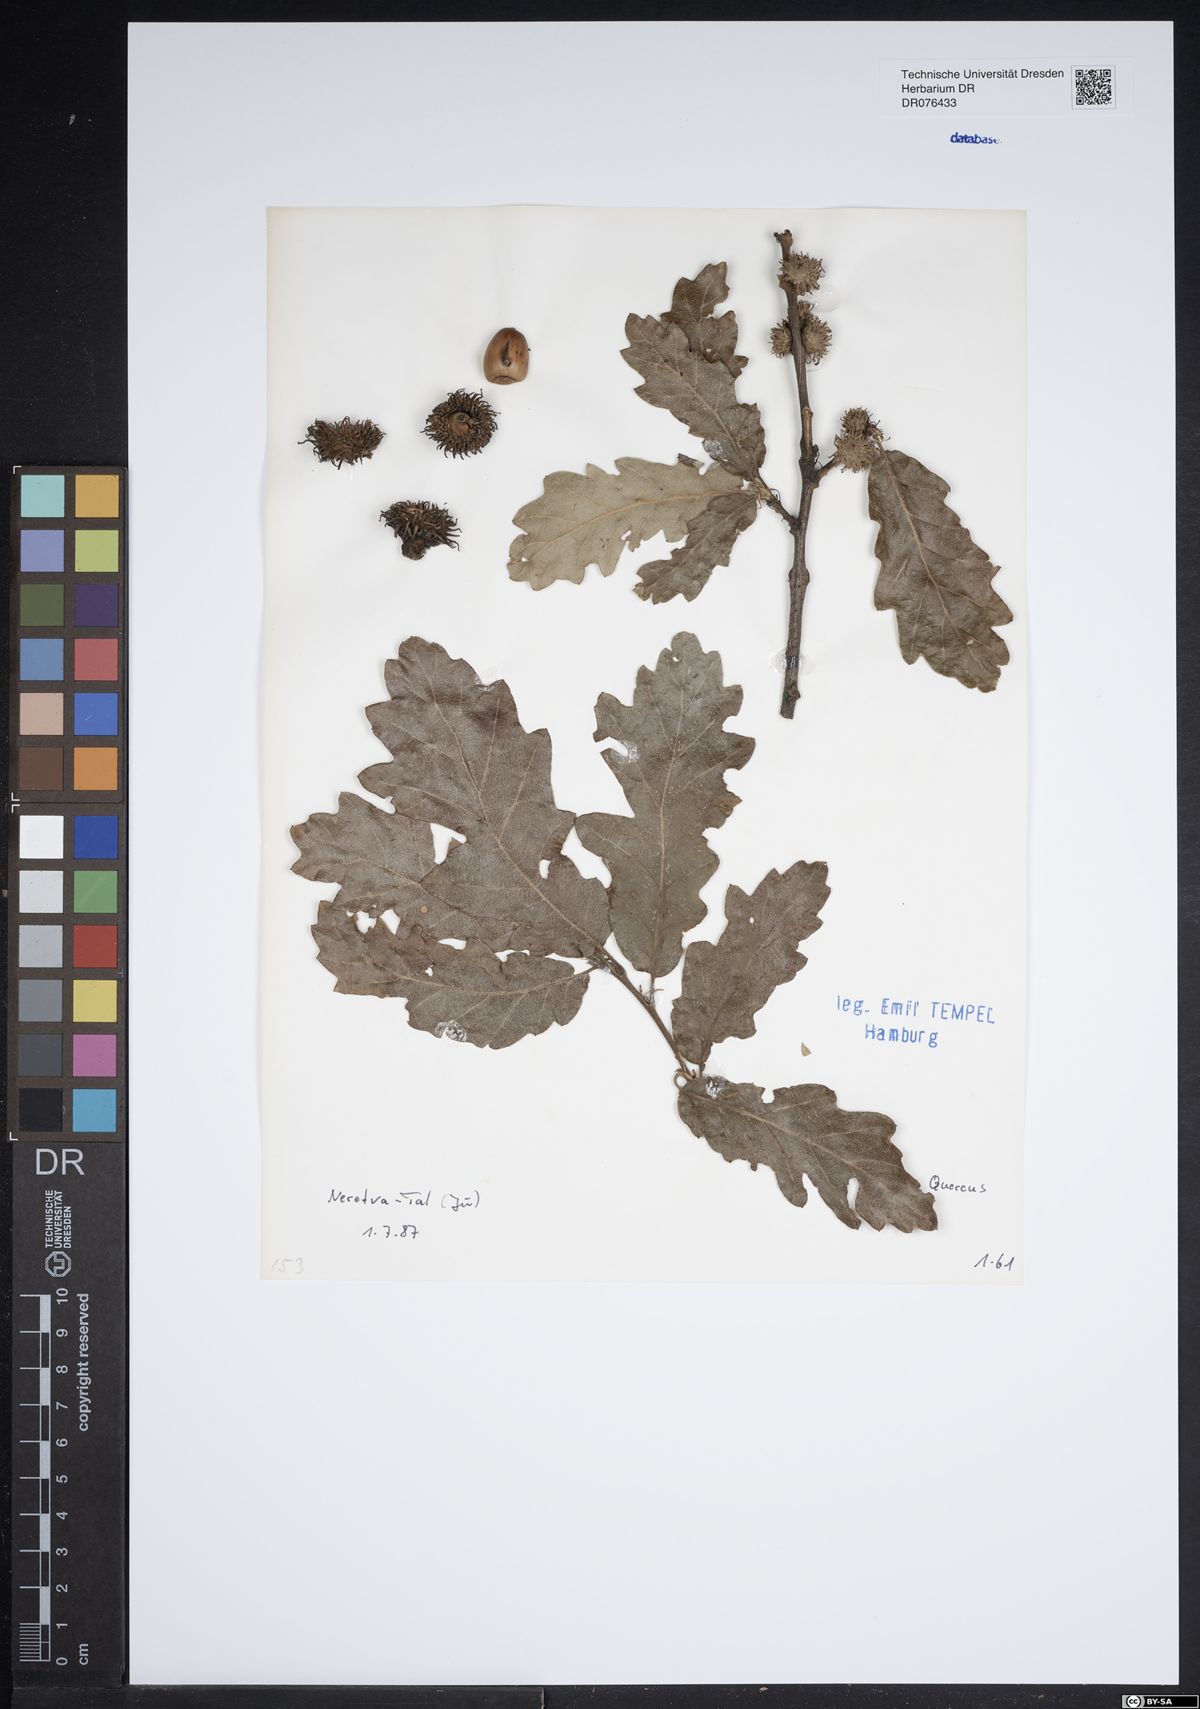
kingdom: Plantae
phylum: Tracheophyta
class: Magnoliopsida
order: Fagales
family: Fagaceae
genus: Quercus
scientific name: Quercus
